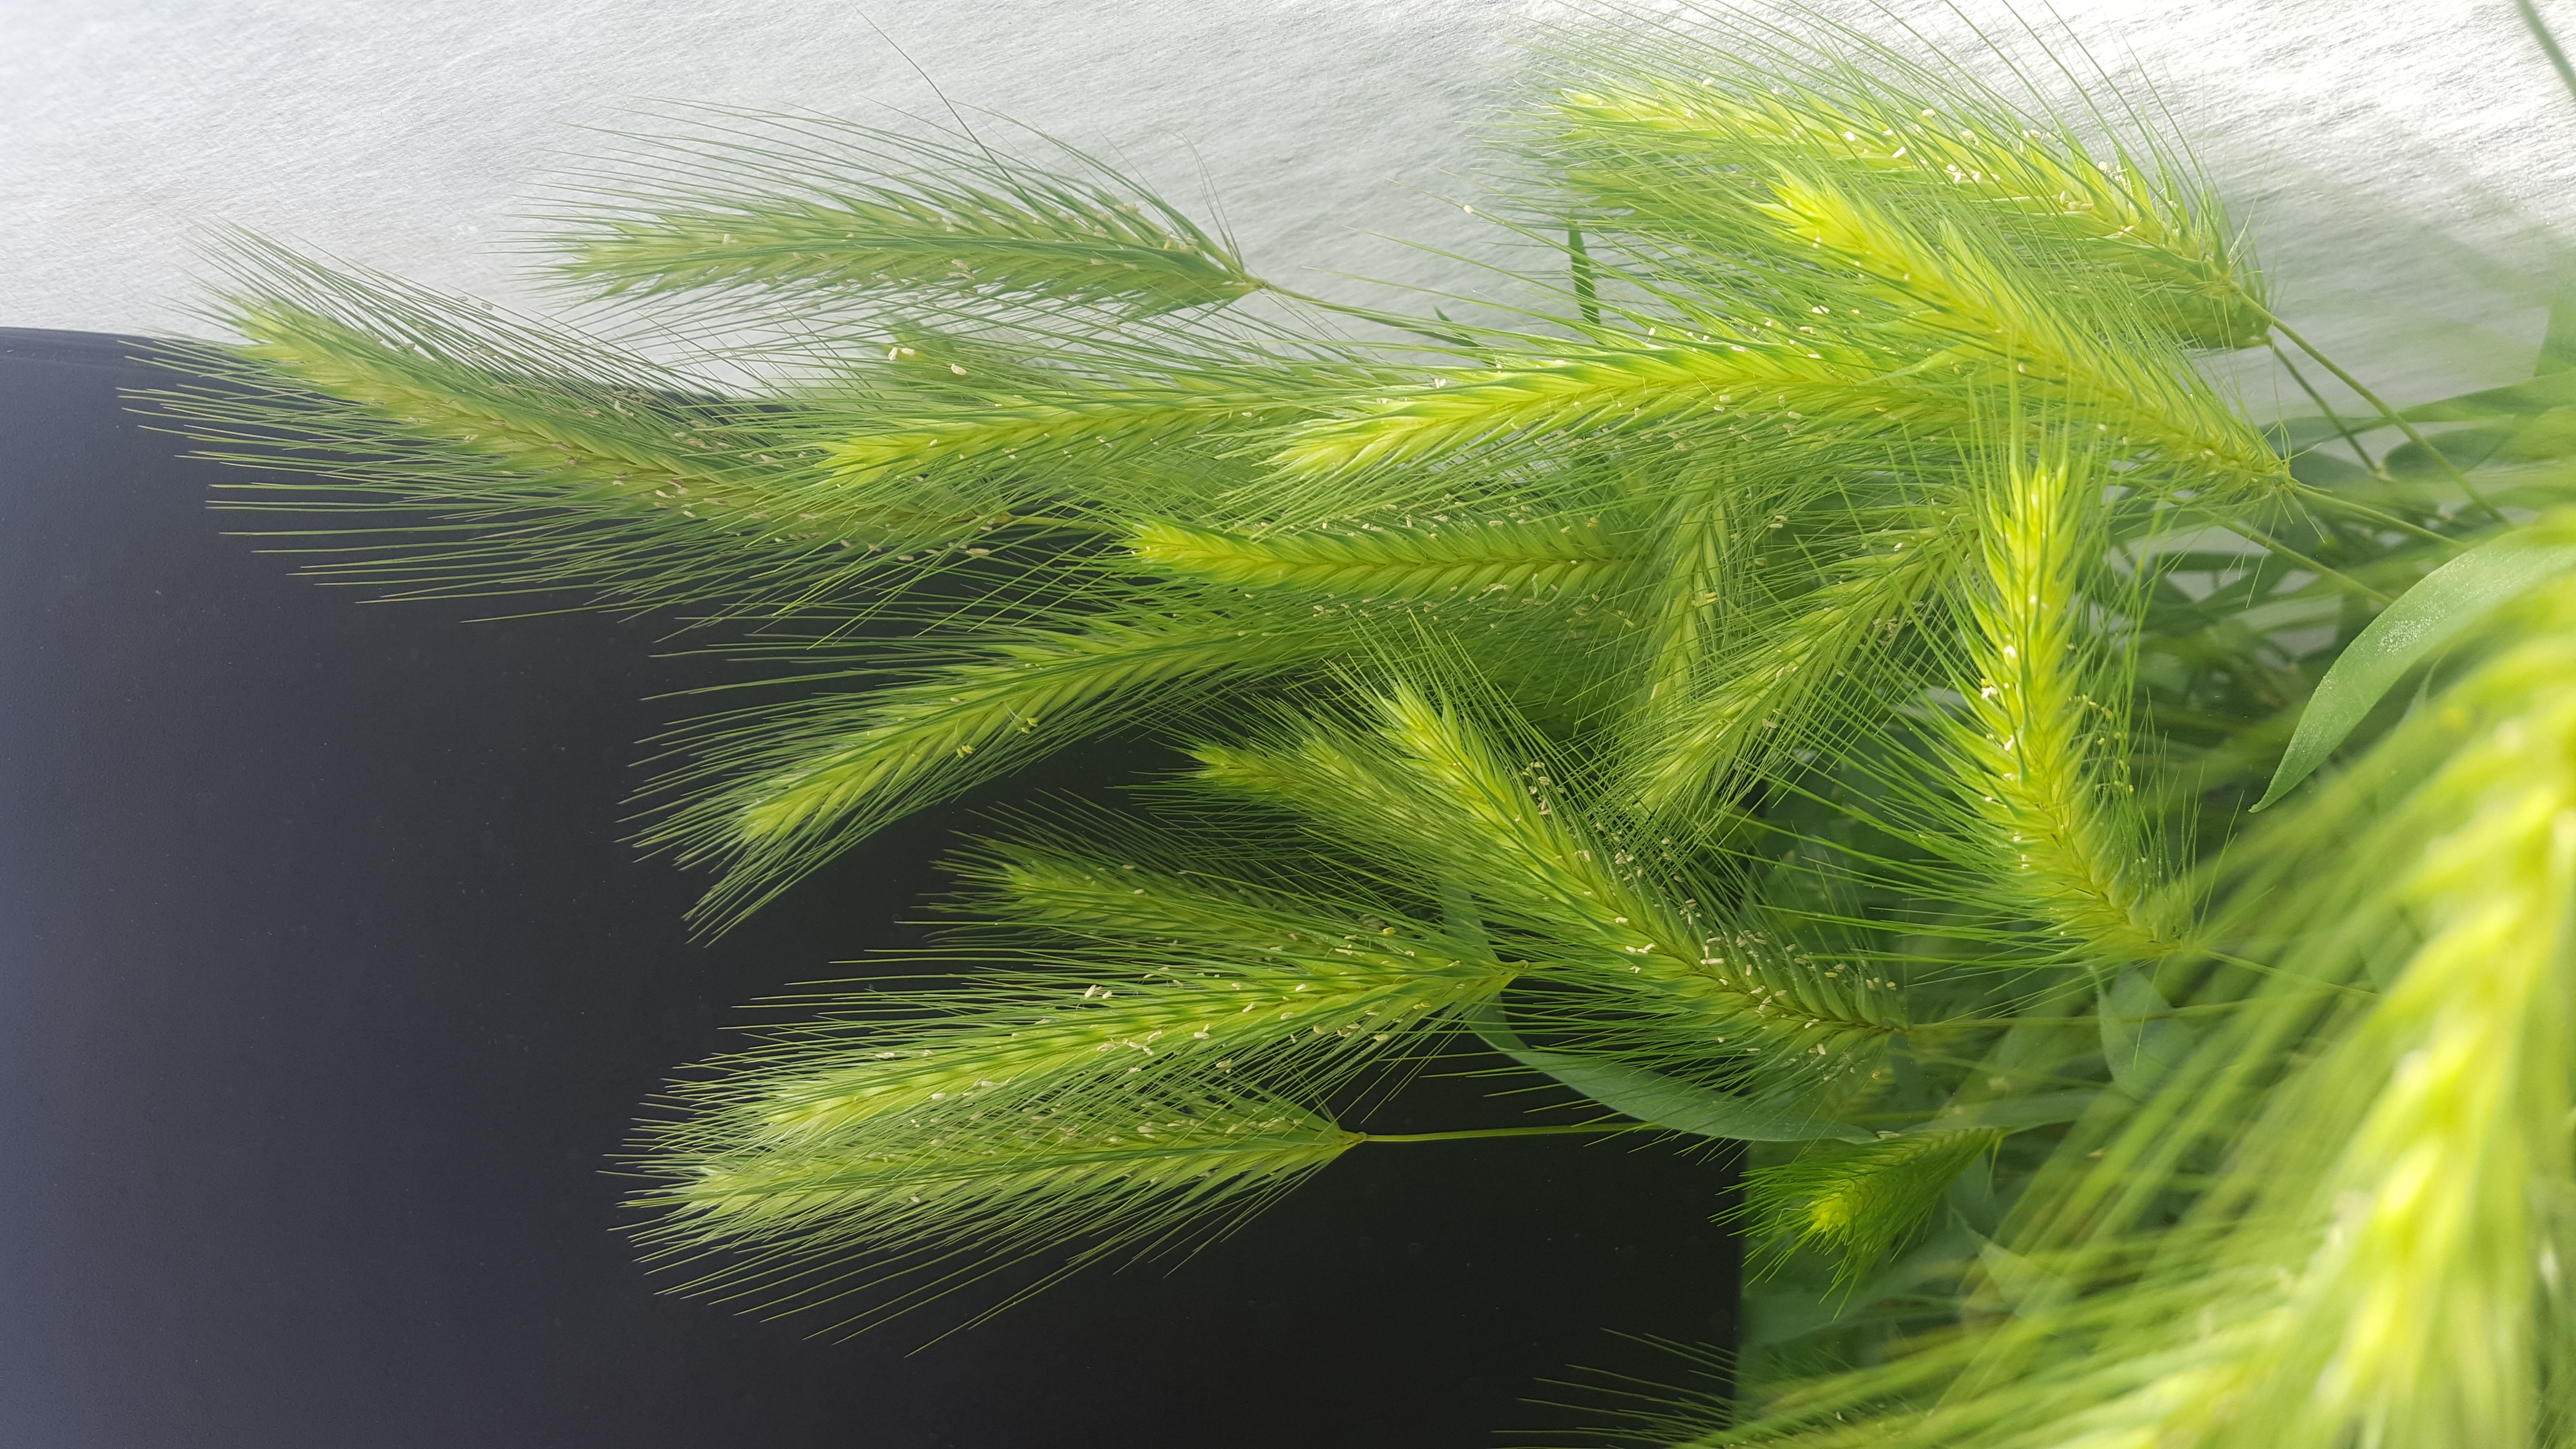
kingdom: Plantae
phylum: Tracheophyta
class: Liliopsida
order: Poales
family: Poaceae
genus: Hordeum
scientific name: Hordeum murinum
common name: Wall barley
